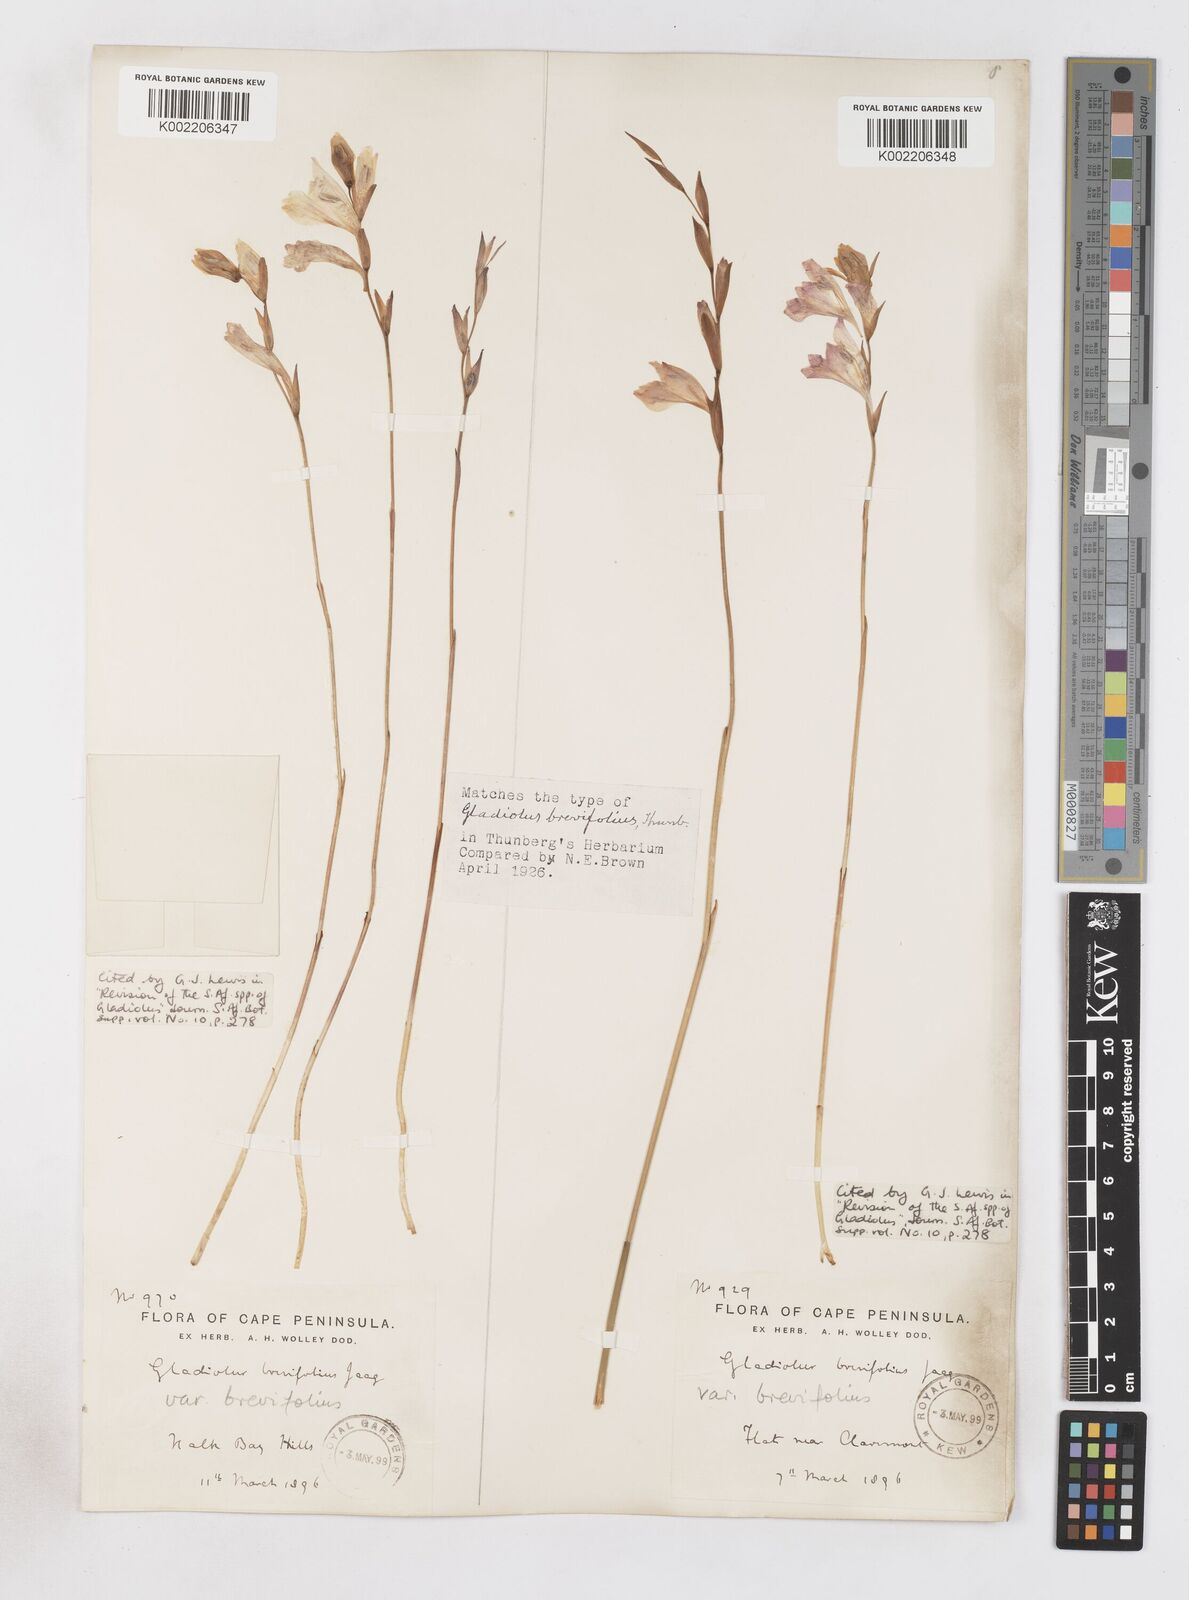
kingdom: Plantae
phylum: Tracheophyta
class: Liliopsida
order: Asparagales
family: Iridaceae
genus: Gladiolus
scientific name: Gladiolus brevifolius
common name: March pypie
